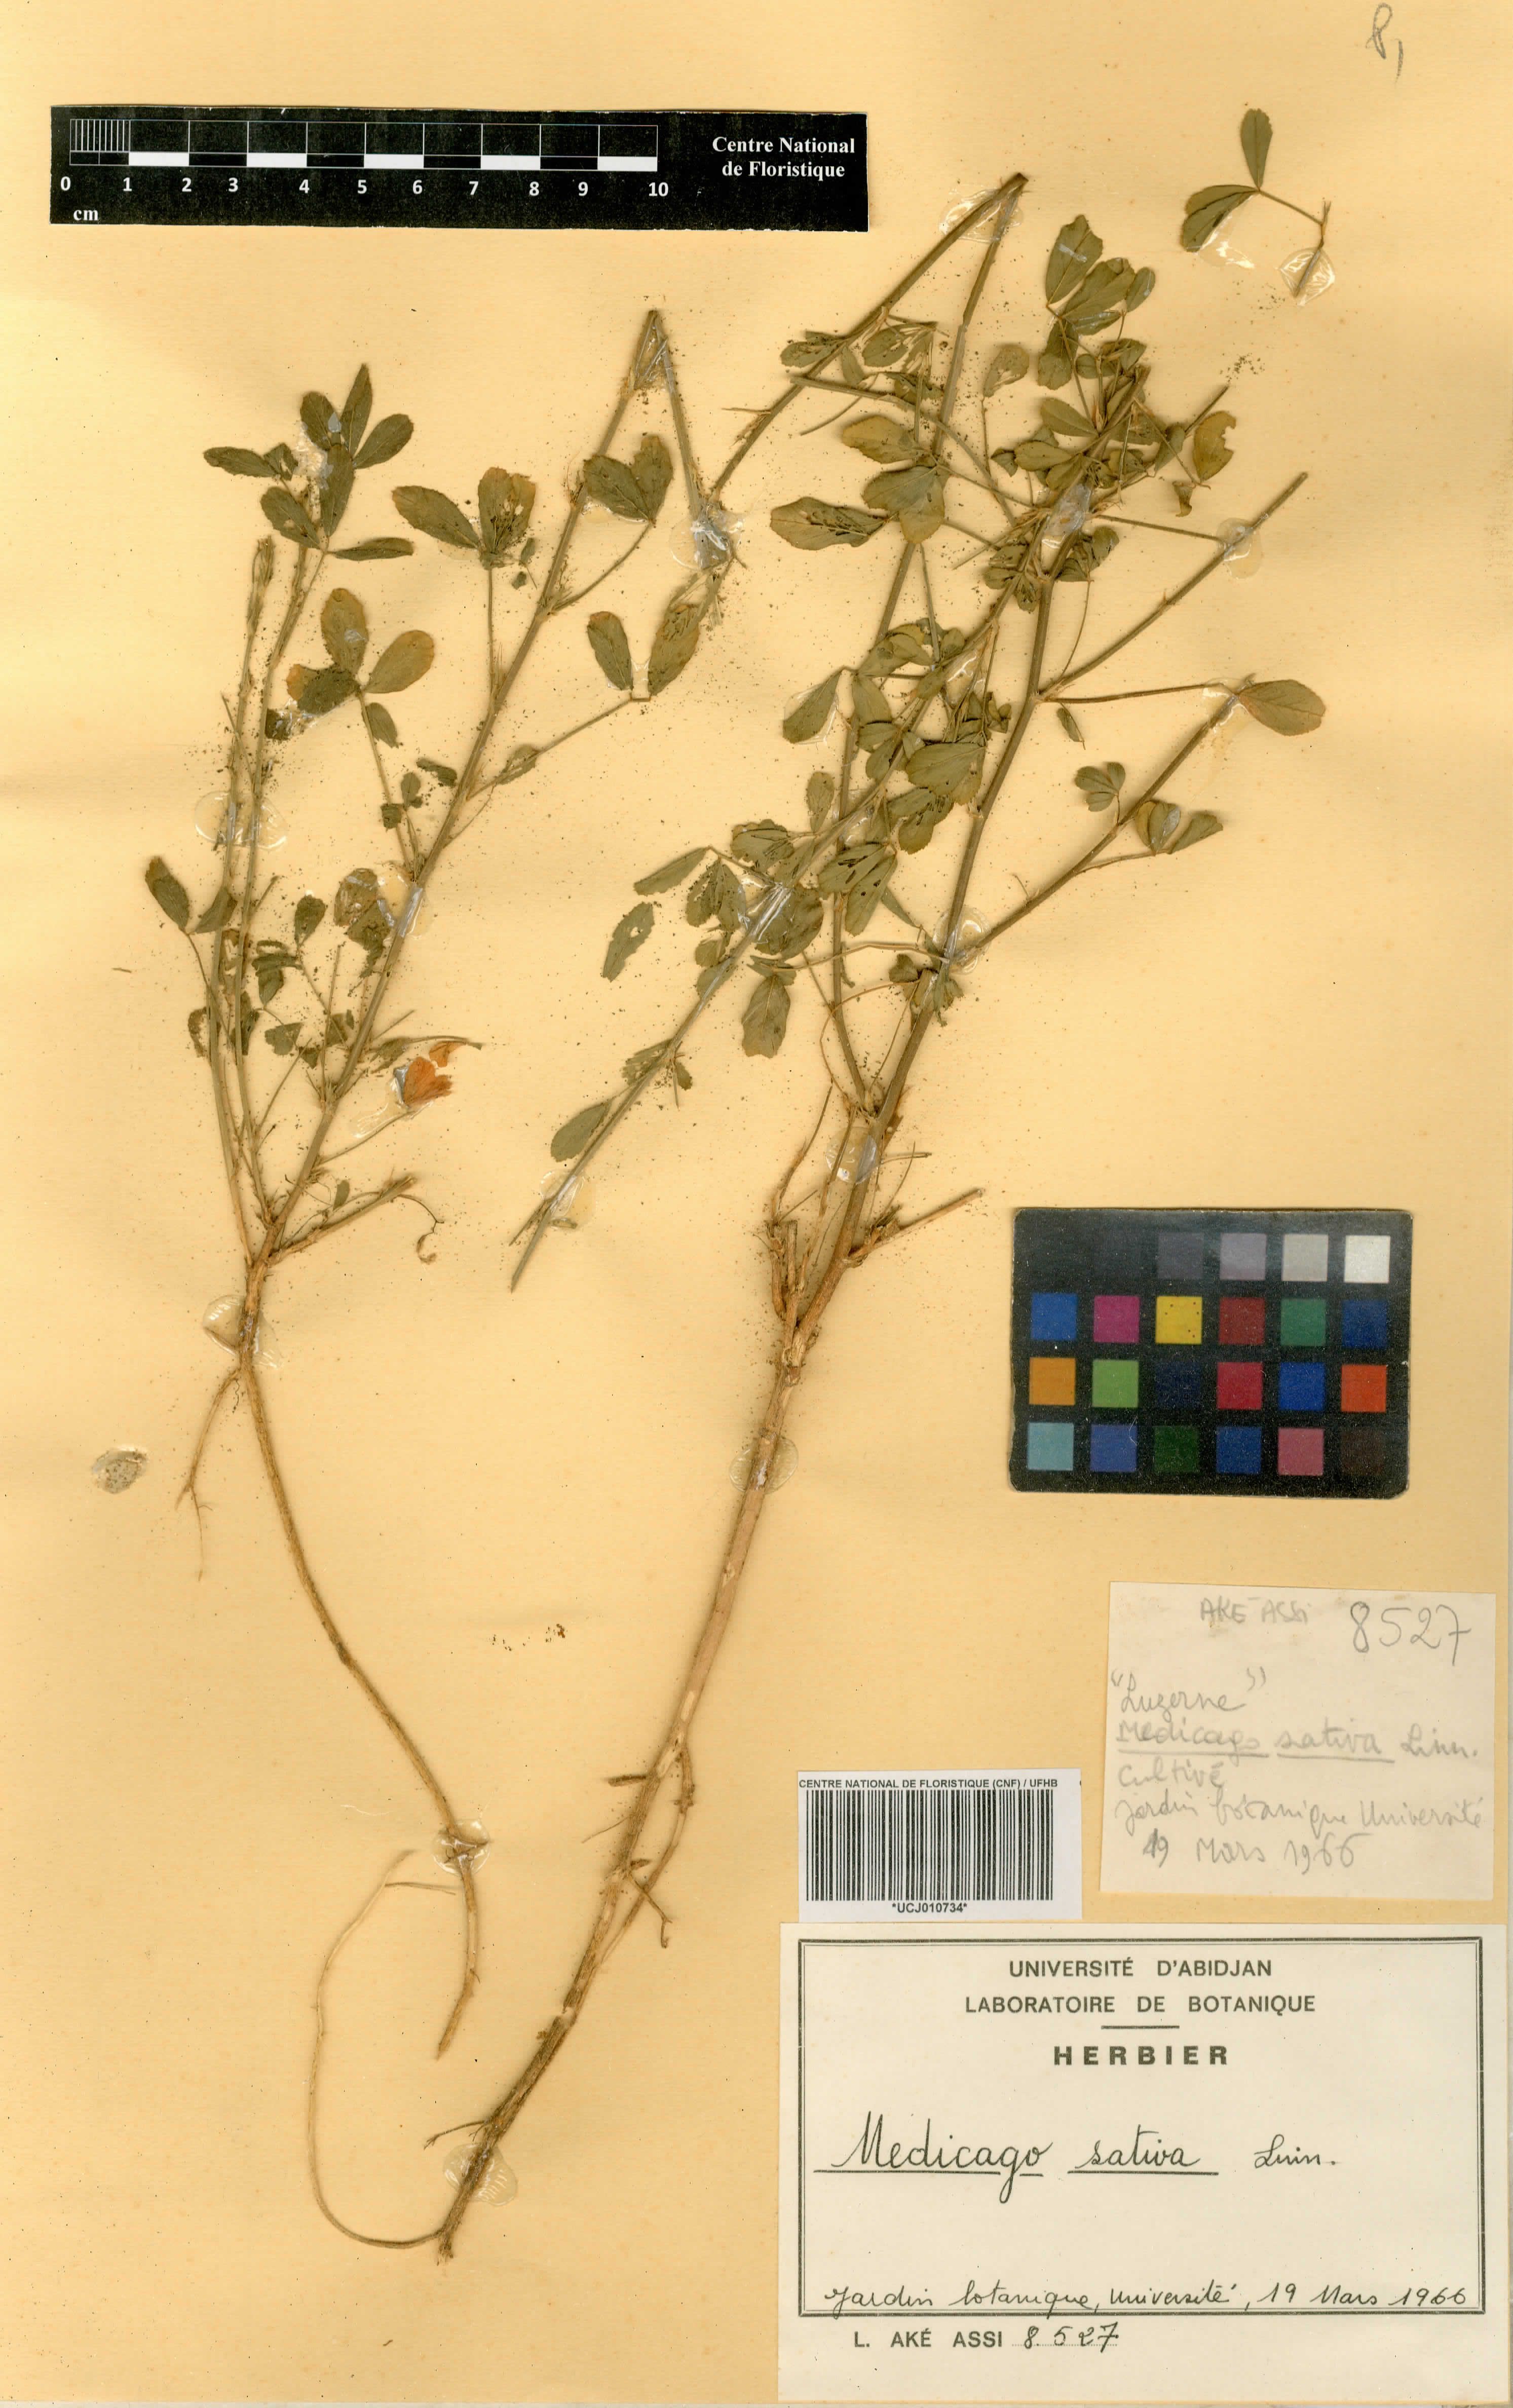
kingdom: Plantae
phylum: Tracheophyta
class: Magnoliopsida
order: Fabales
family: Fabaceae
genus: Medicago
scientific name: Medicago sativa
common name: Alfalfa
